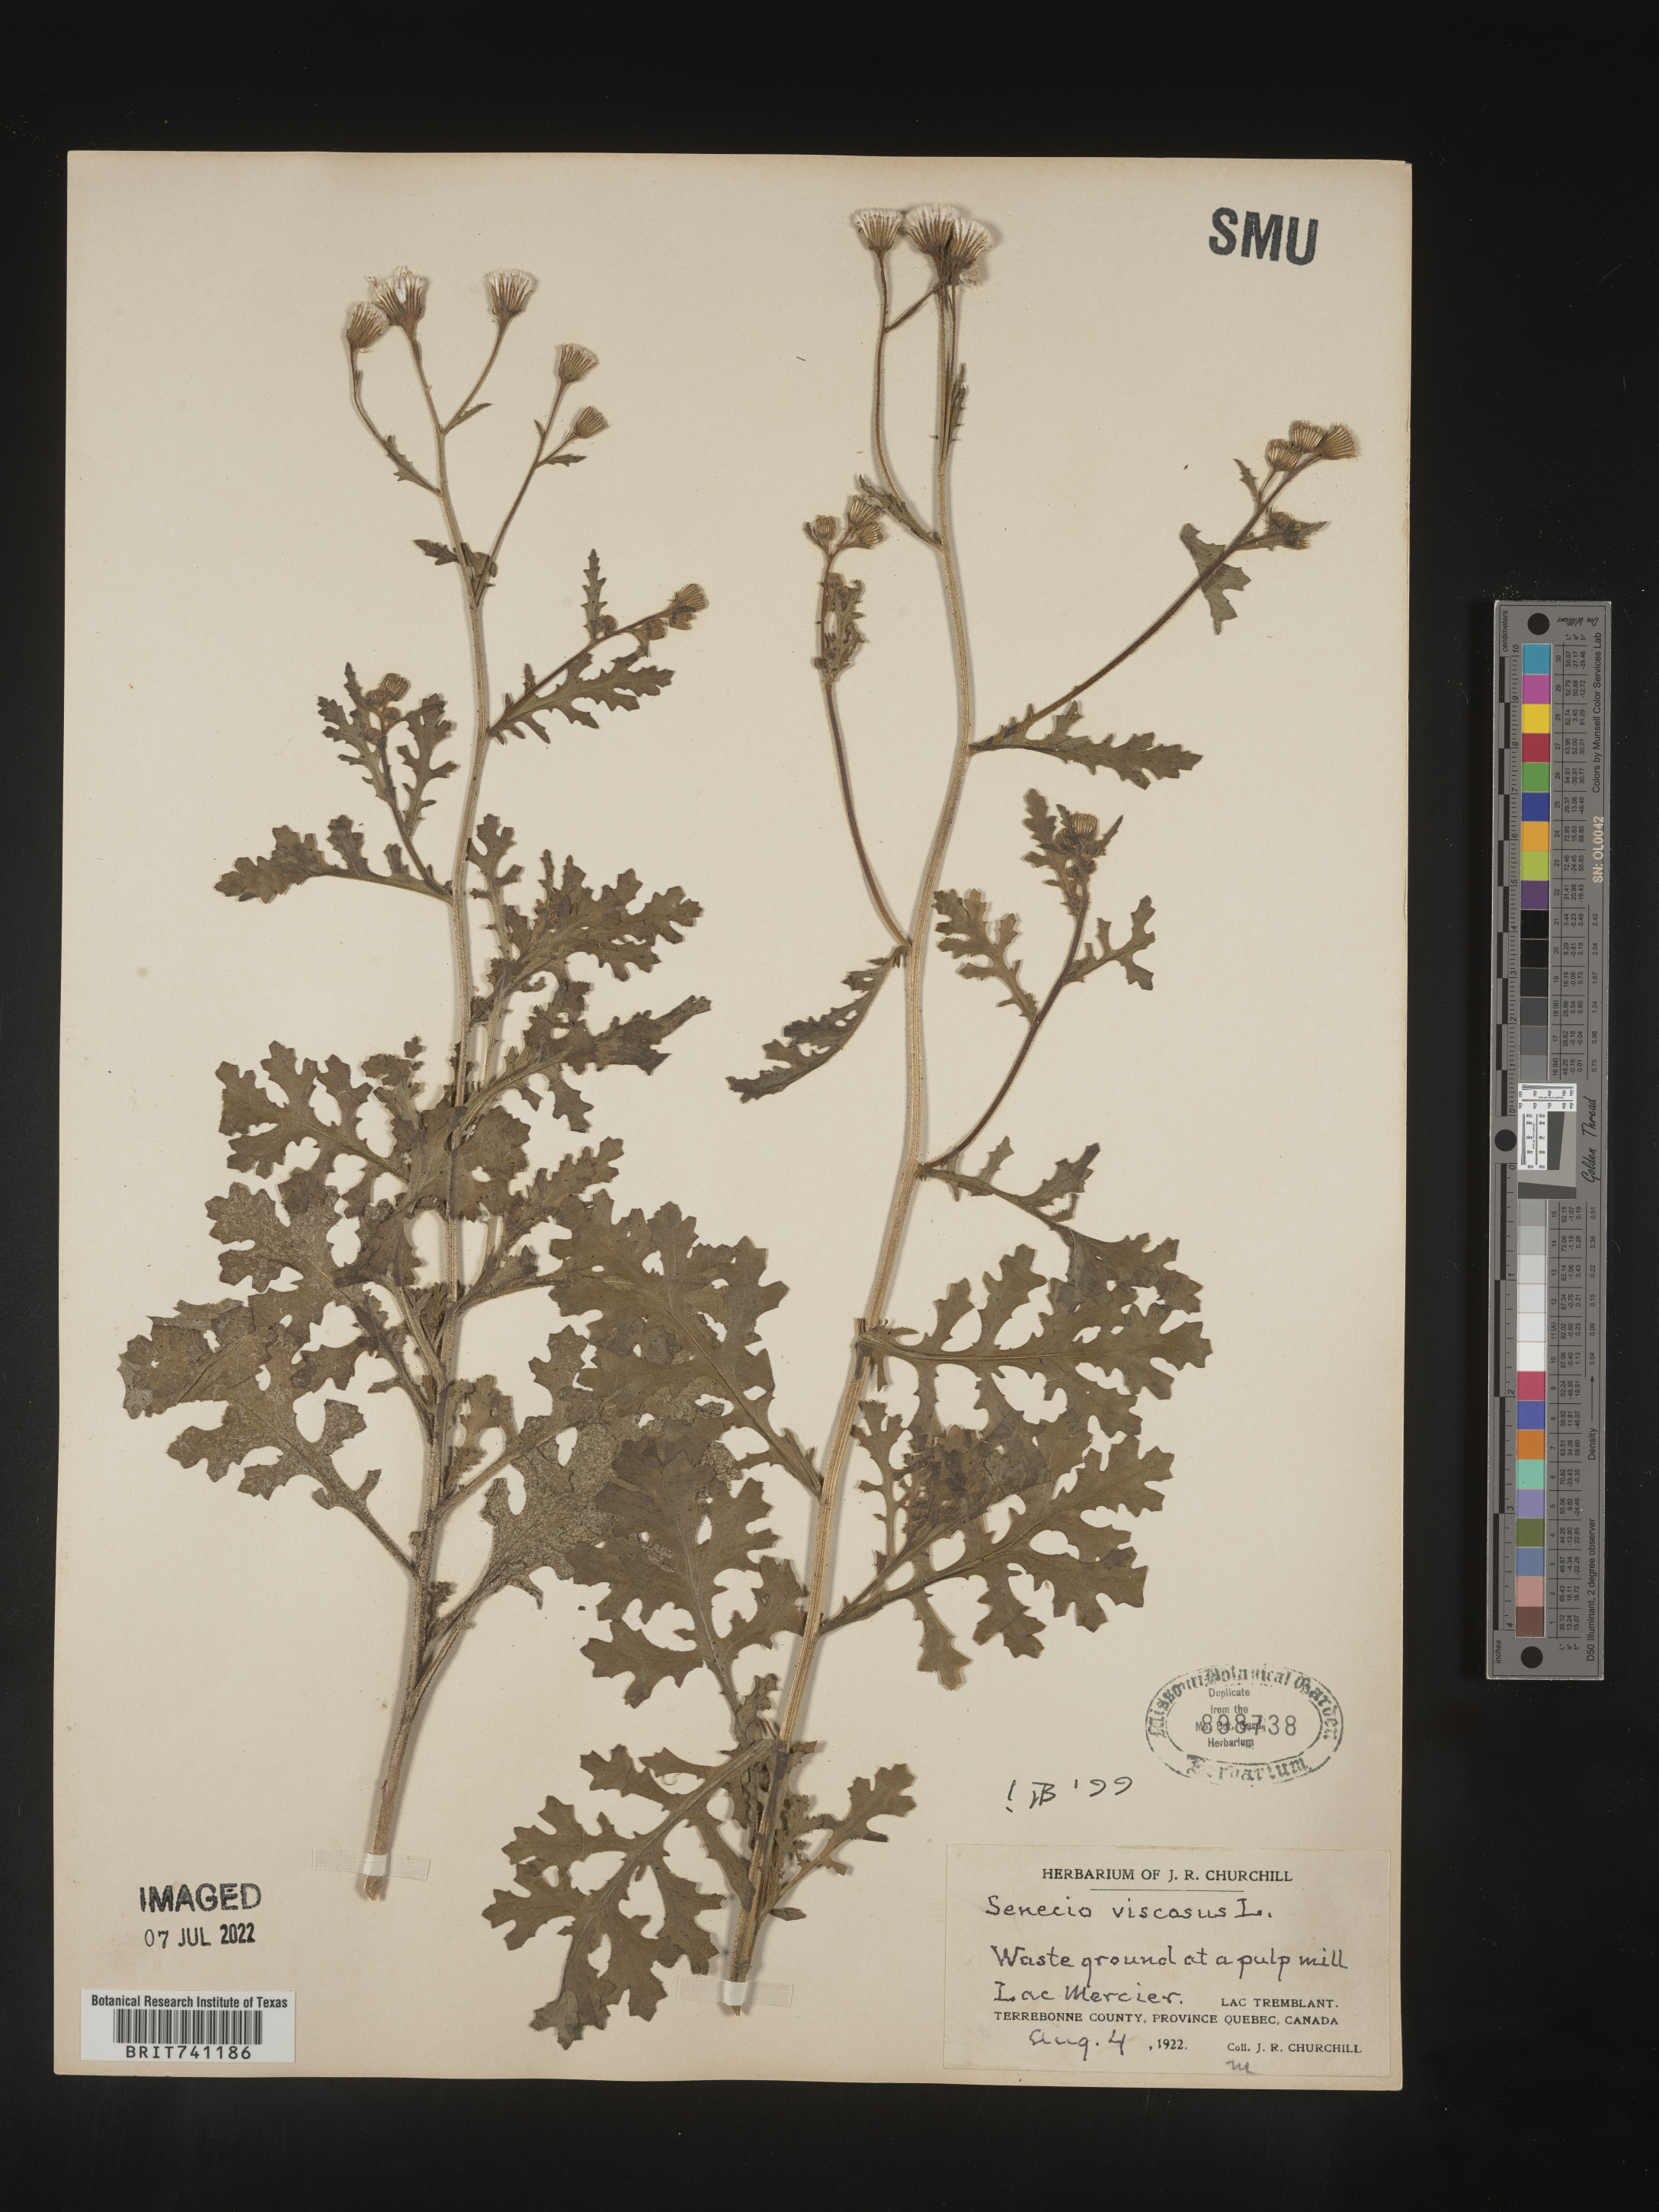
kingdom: Plantae
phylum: Tracheophyta
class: Magnoliopsida
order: Asterales
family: Asteraceae
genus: Senecio
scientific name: Senecio viscosus
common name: Sticky groundsel
